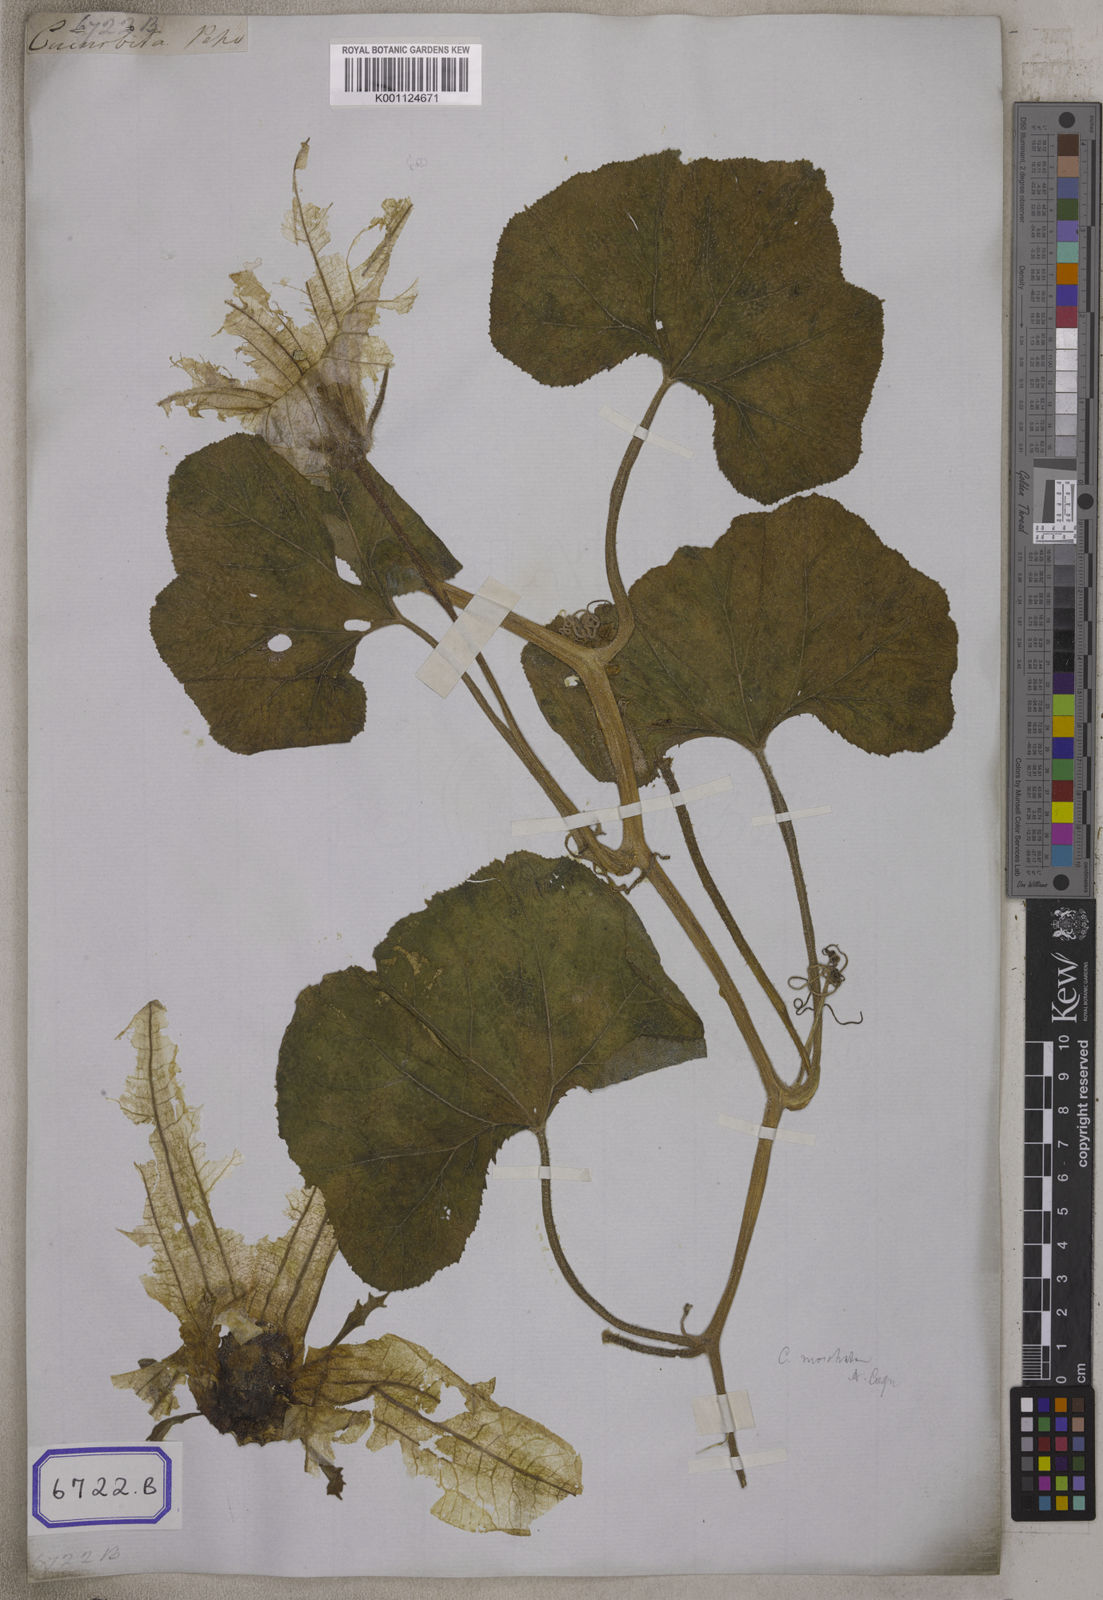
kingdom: Plantae
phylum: Tracheophyta
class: Magnoliopsida
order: Cucurbitales
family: Cucurbitaceae
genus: Cucurbita
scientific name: Cucurbita
